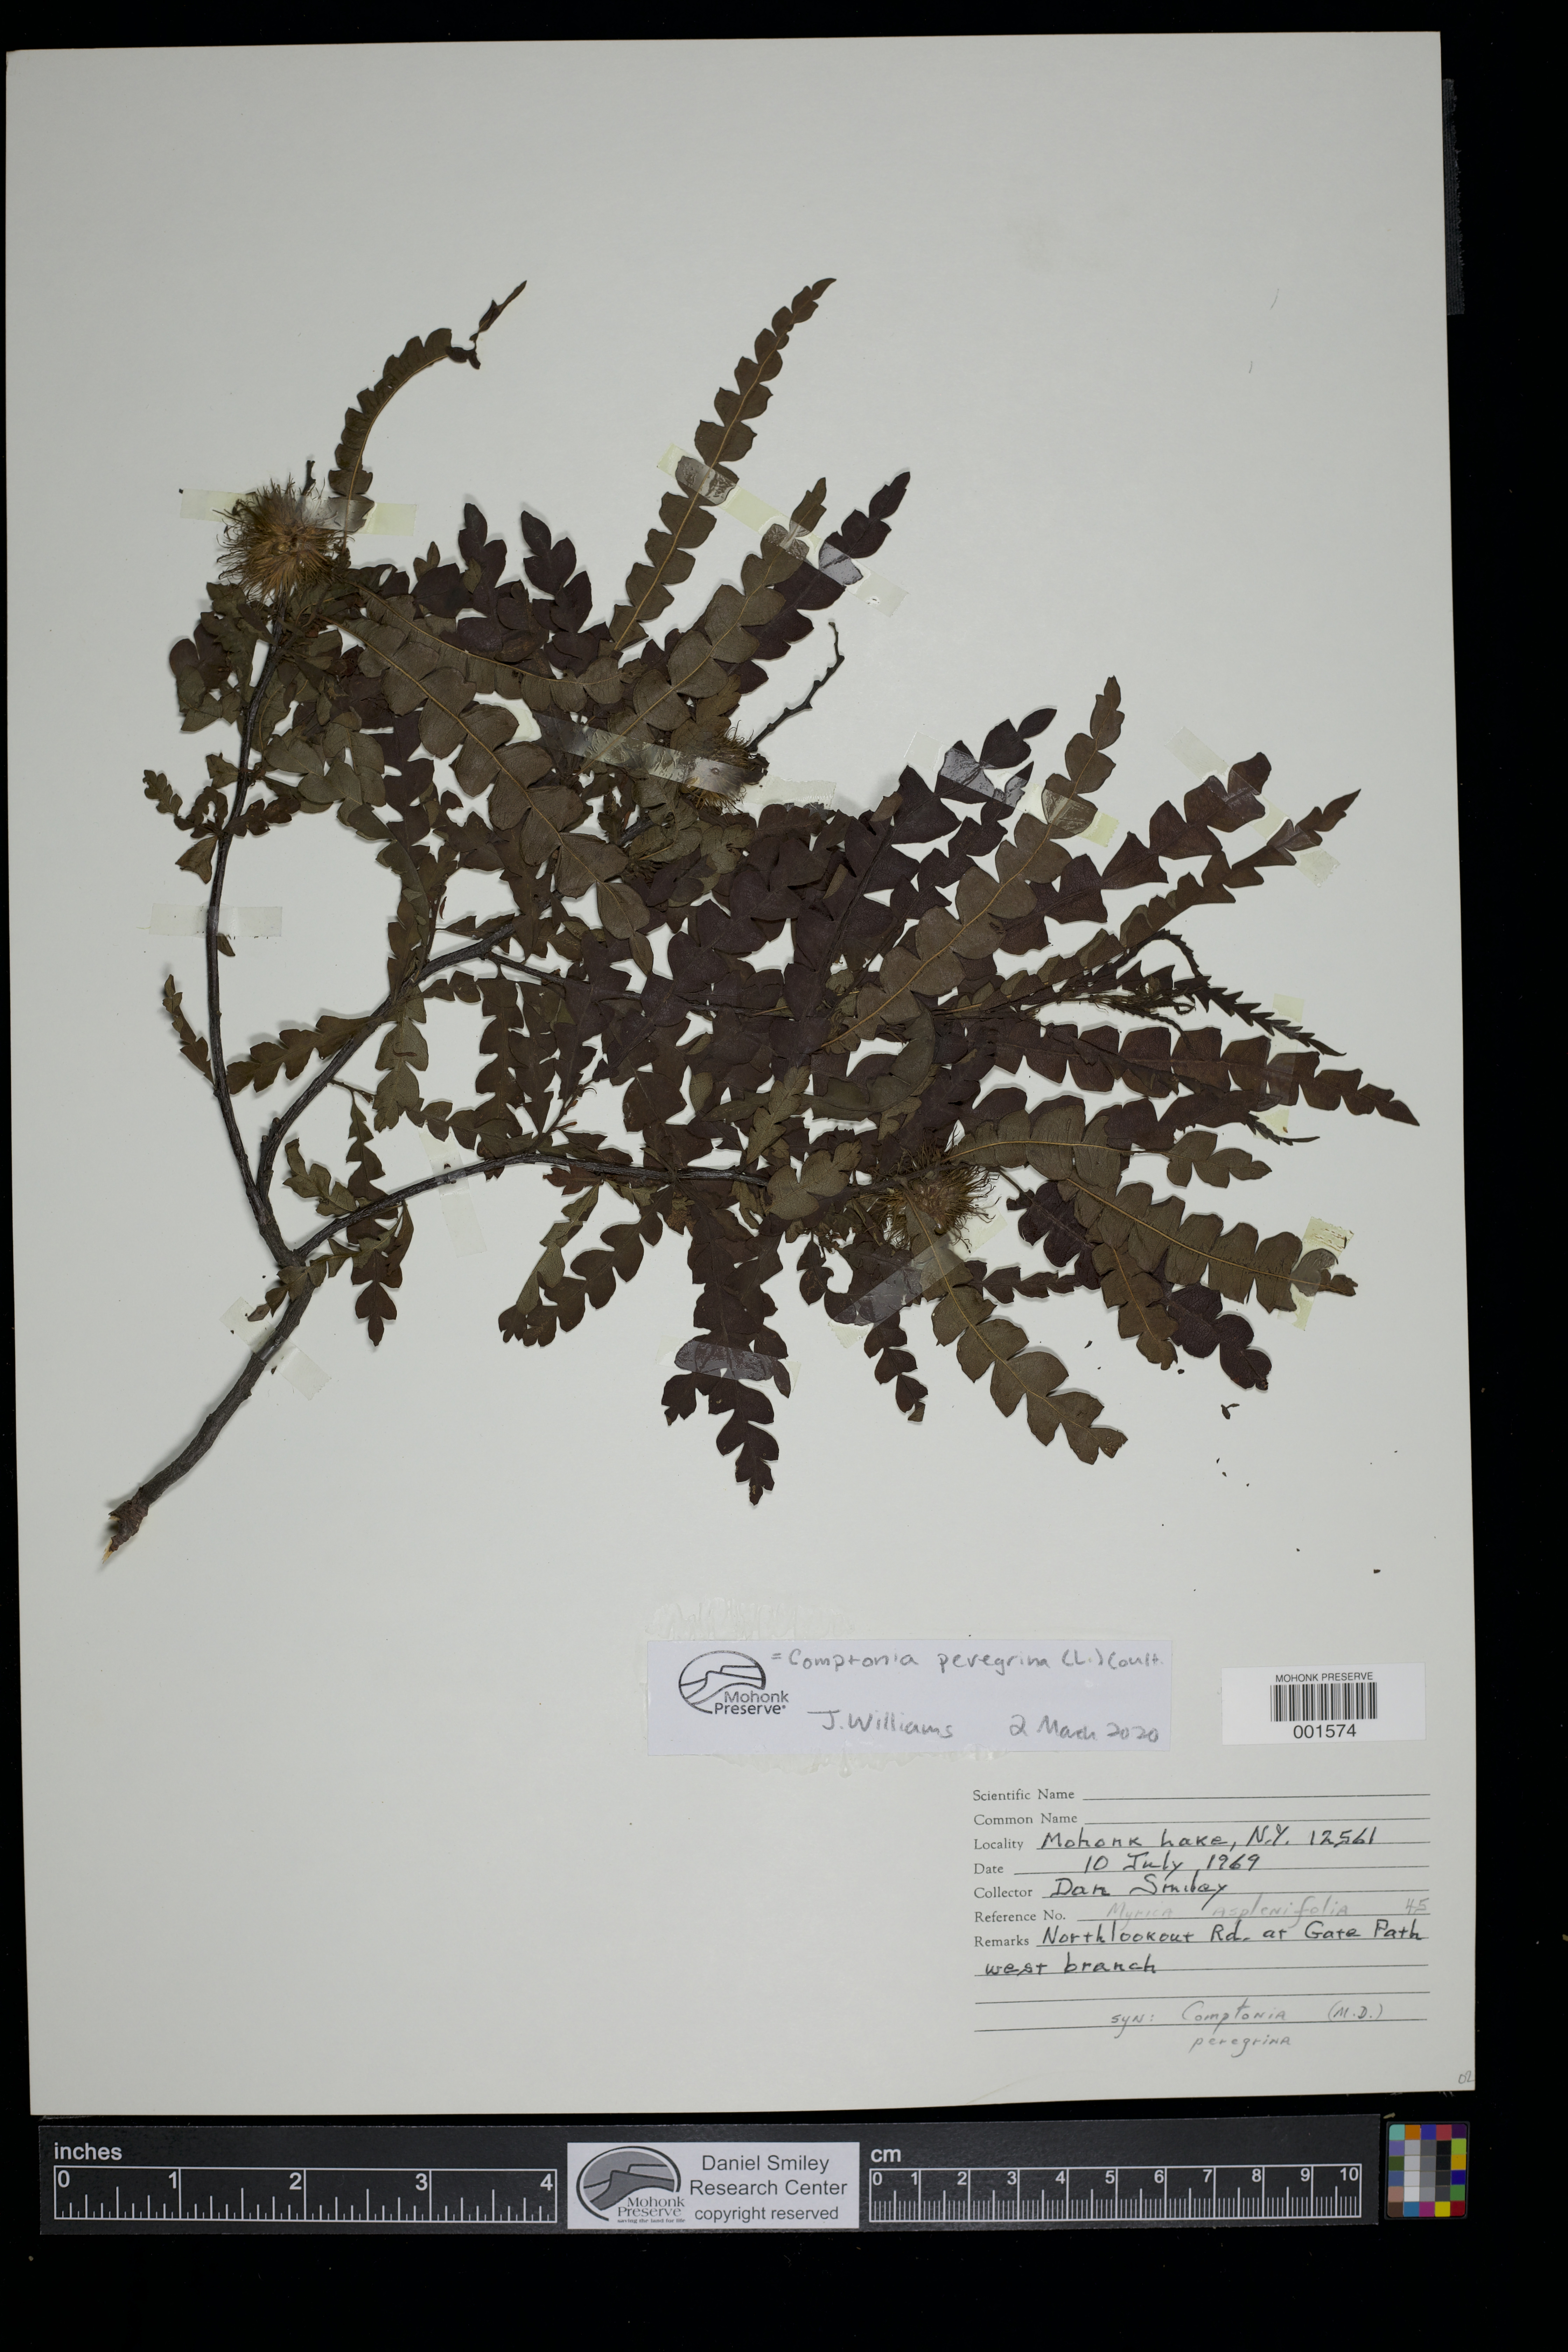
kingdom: Plantae
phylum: Tracheophyta
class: Magnoliopsida
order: Fagales
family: Myricaceae
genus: Comptonia
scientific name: Comptonia peregrina
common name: Sweet-fern
